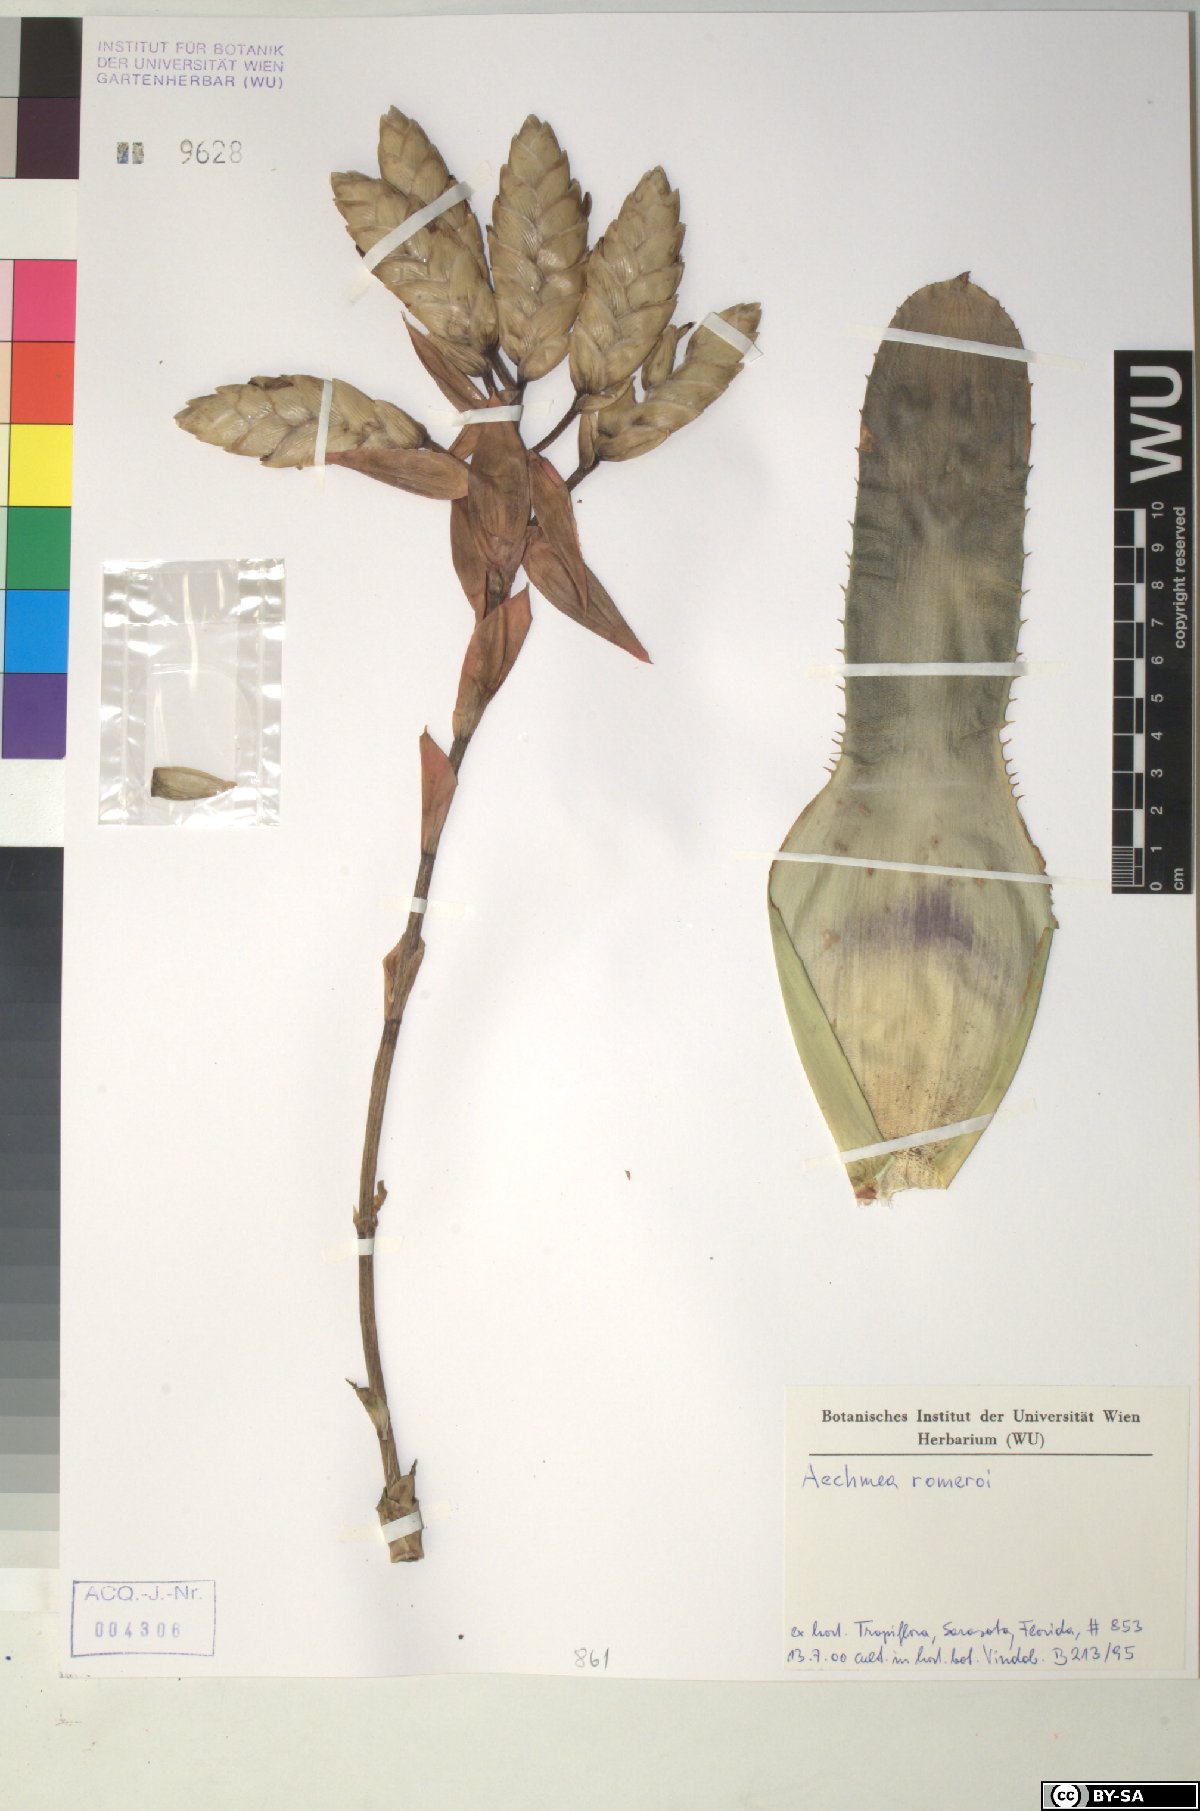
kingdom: Plantae
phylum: Tracheophyta
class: Liliopsida
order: Poales
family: Bromeliaceae
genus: Aechmea
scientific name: Aechmea
